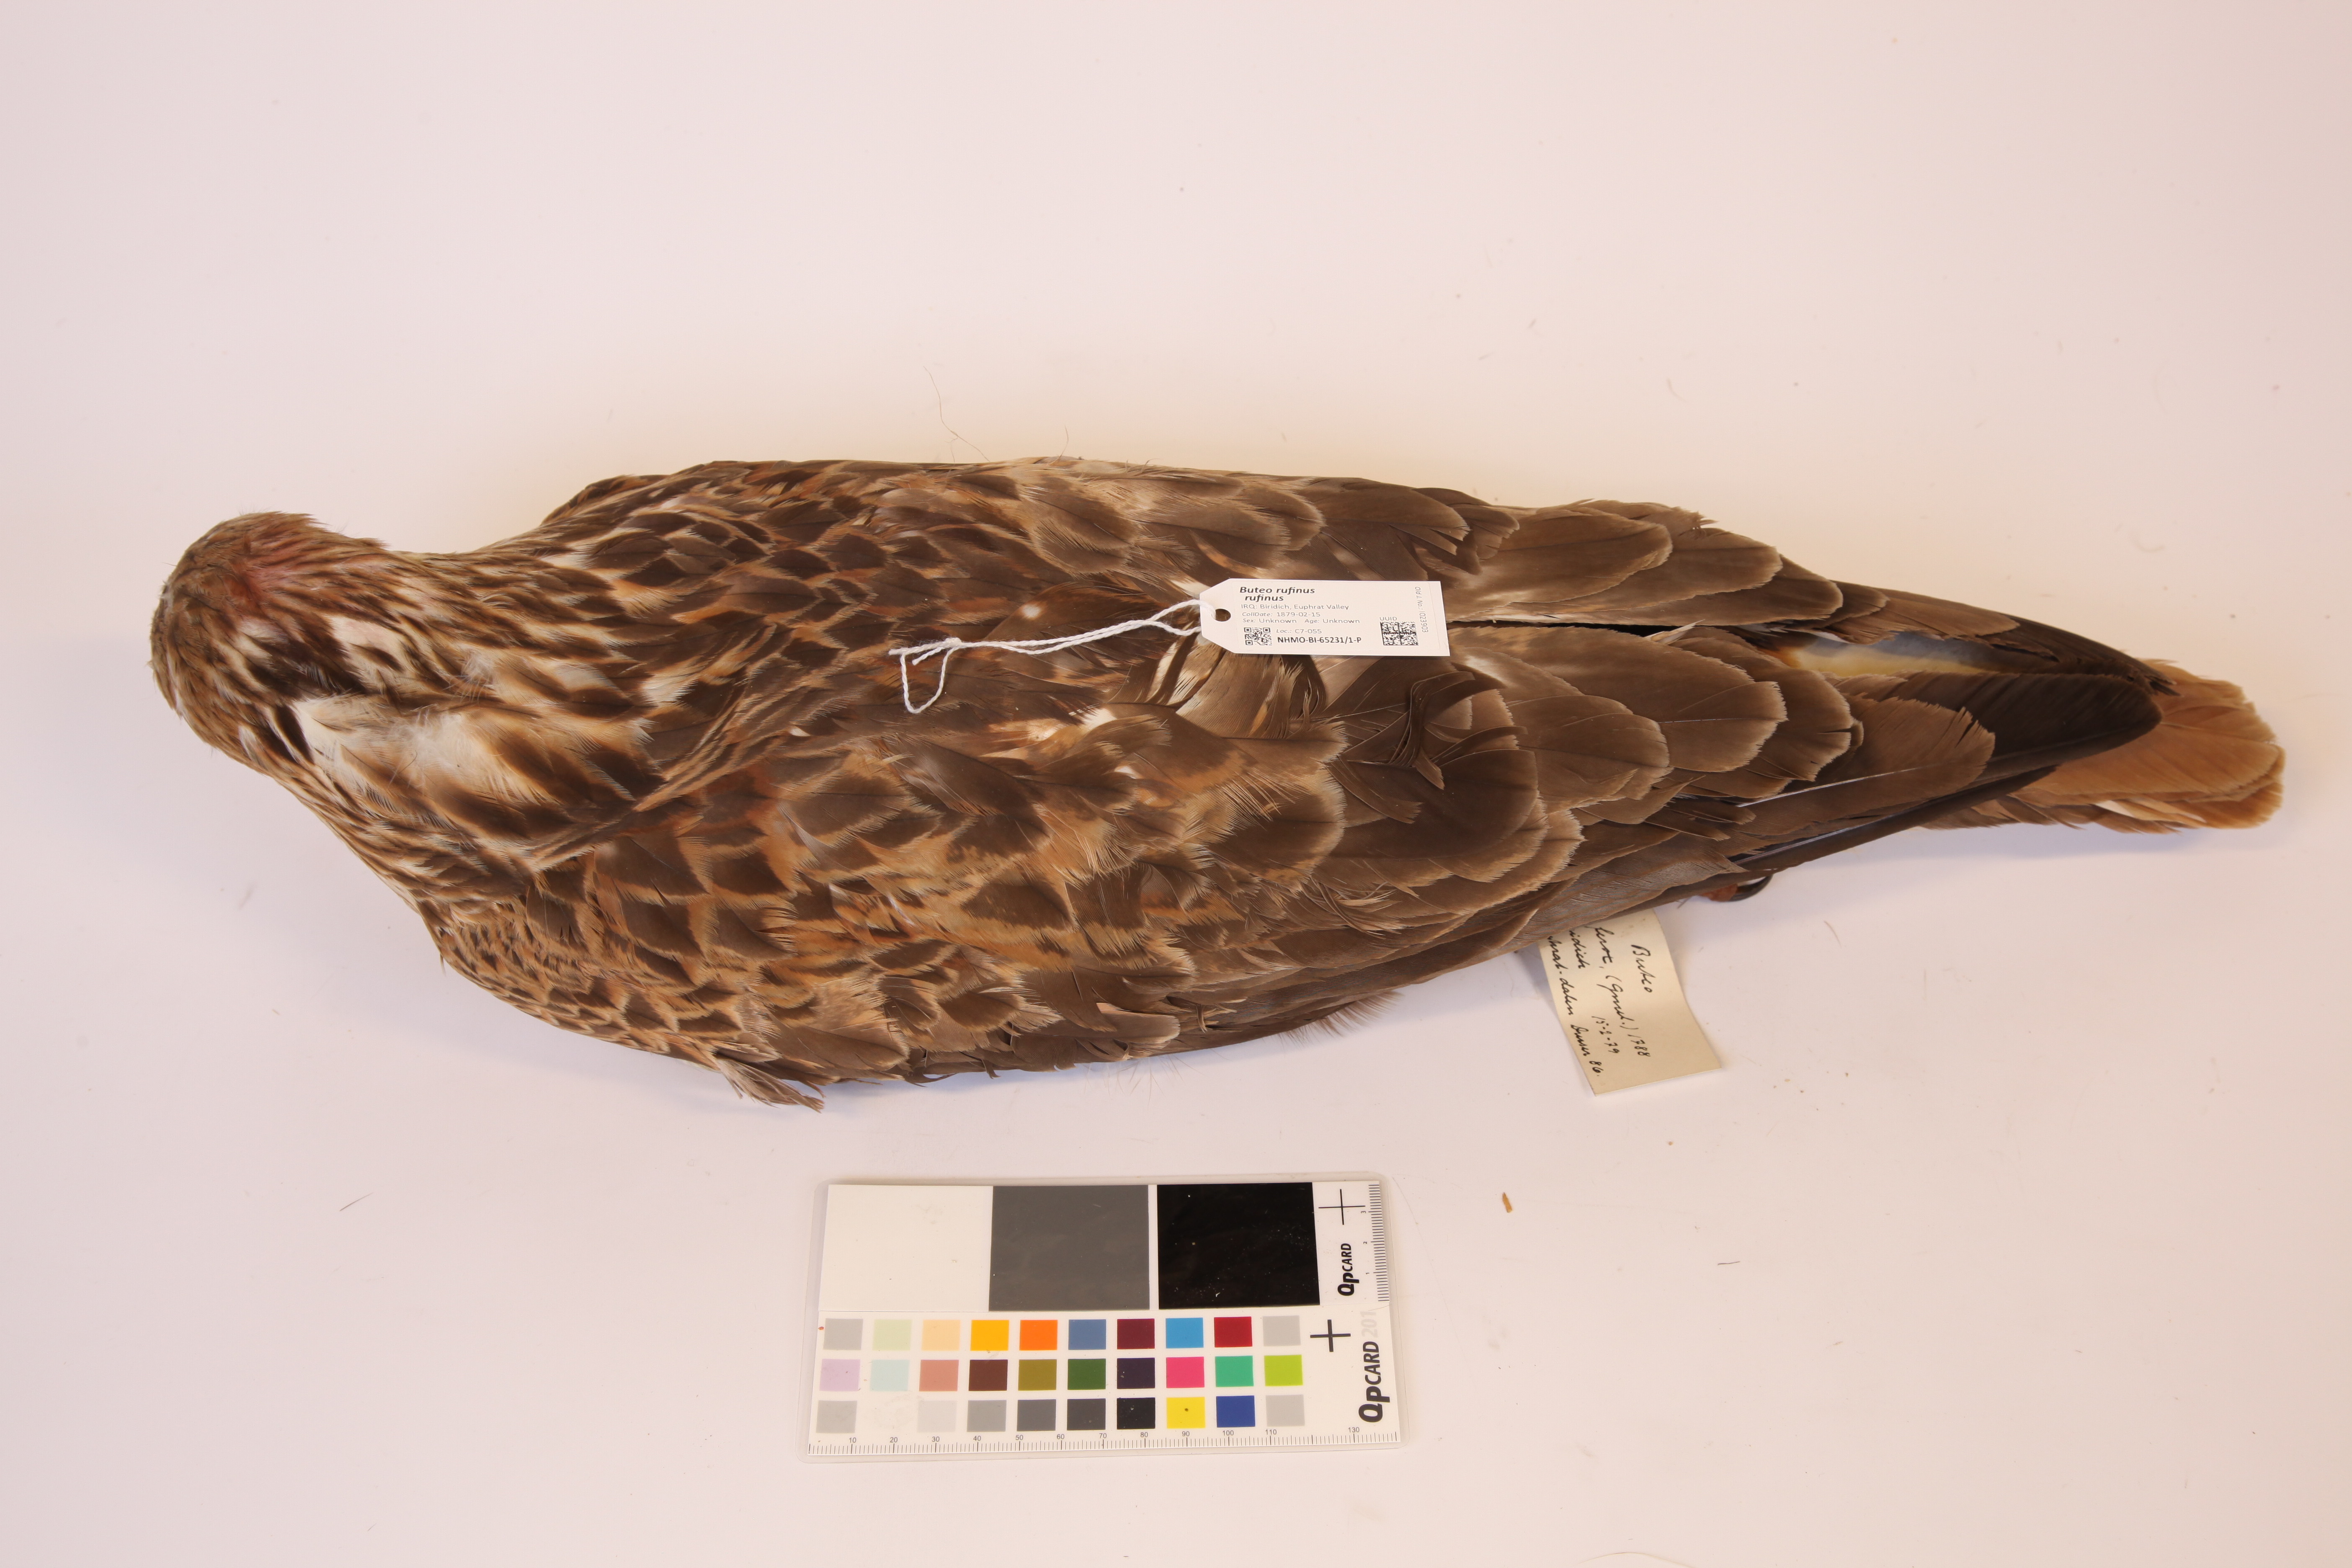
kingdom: Animalia
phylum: Chordata
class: Aves
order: Accipitriformes
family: Accipitridae
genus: Buteo
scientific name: Buteo rufinus
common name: Long-legged buzzard
